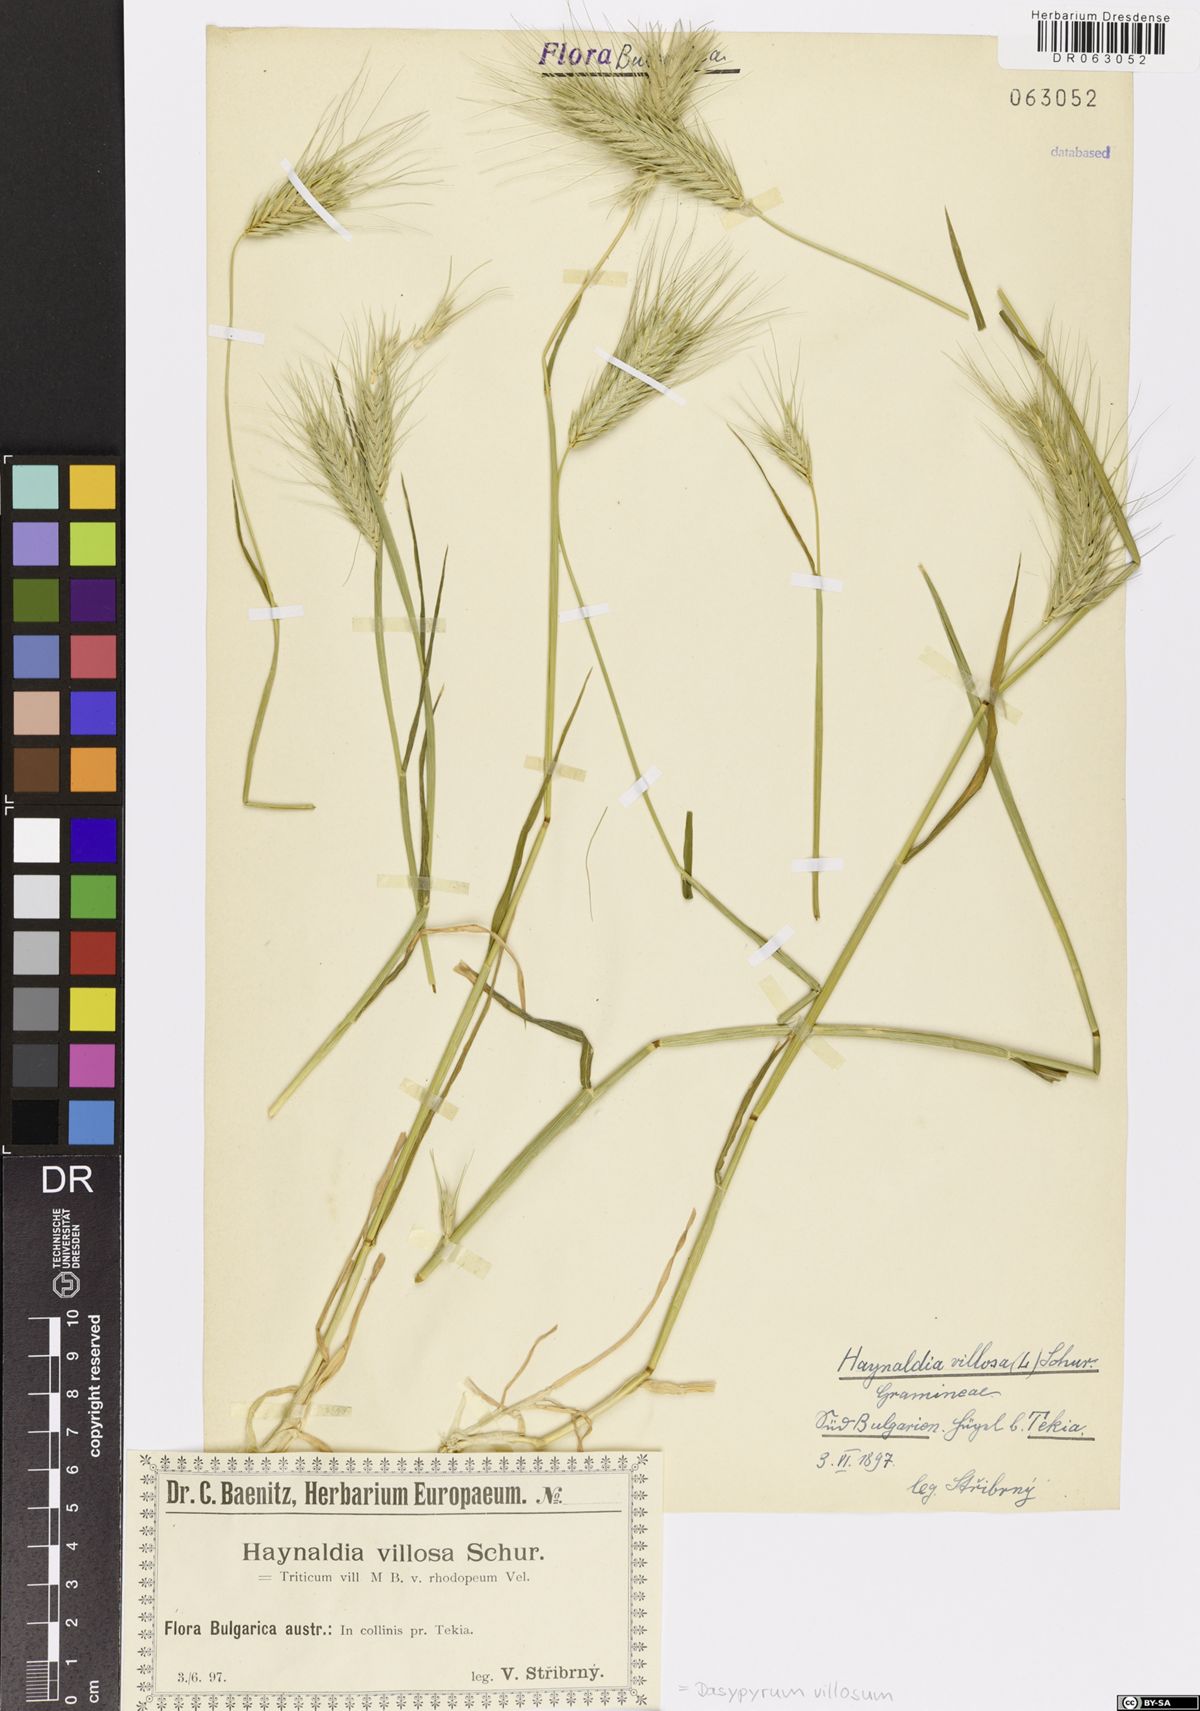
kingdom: Plantae
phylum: Tracheophyta
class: Liliopsida
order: Poales
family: Poaceae
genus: Dasypyrum
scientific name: Dasypyrum villosum
